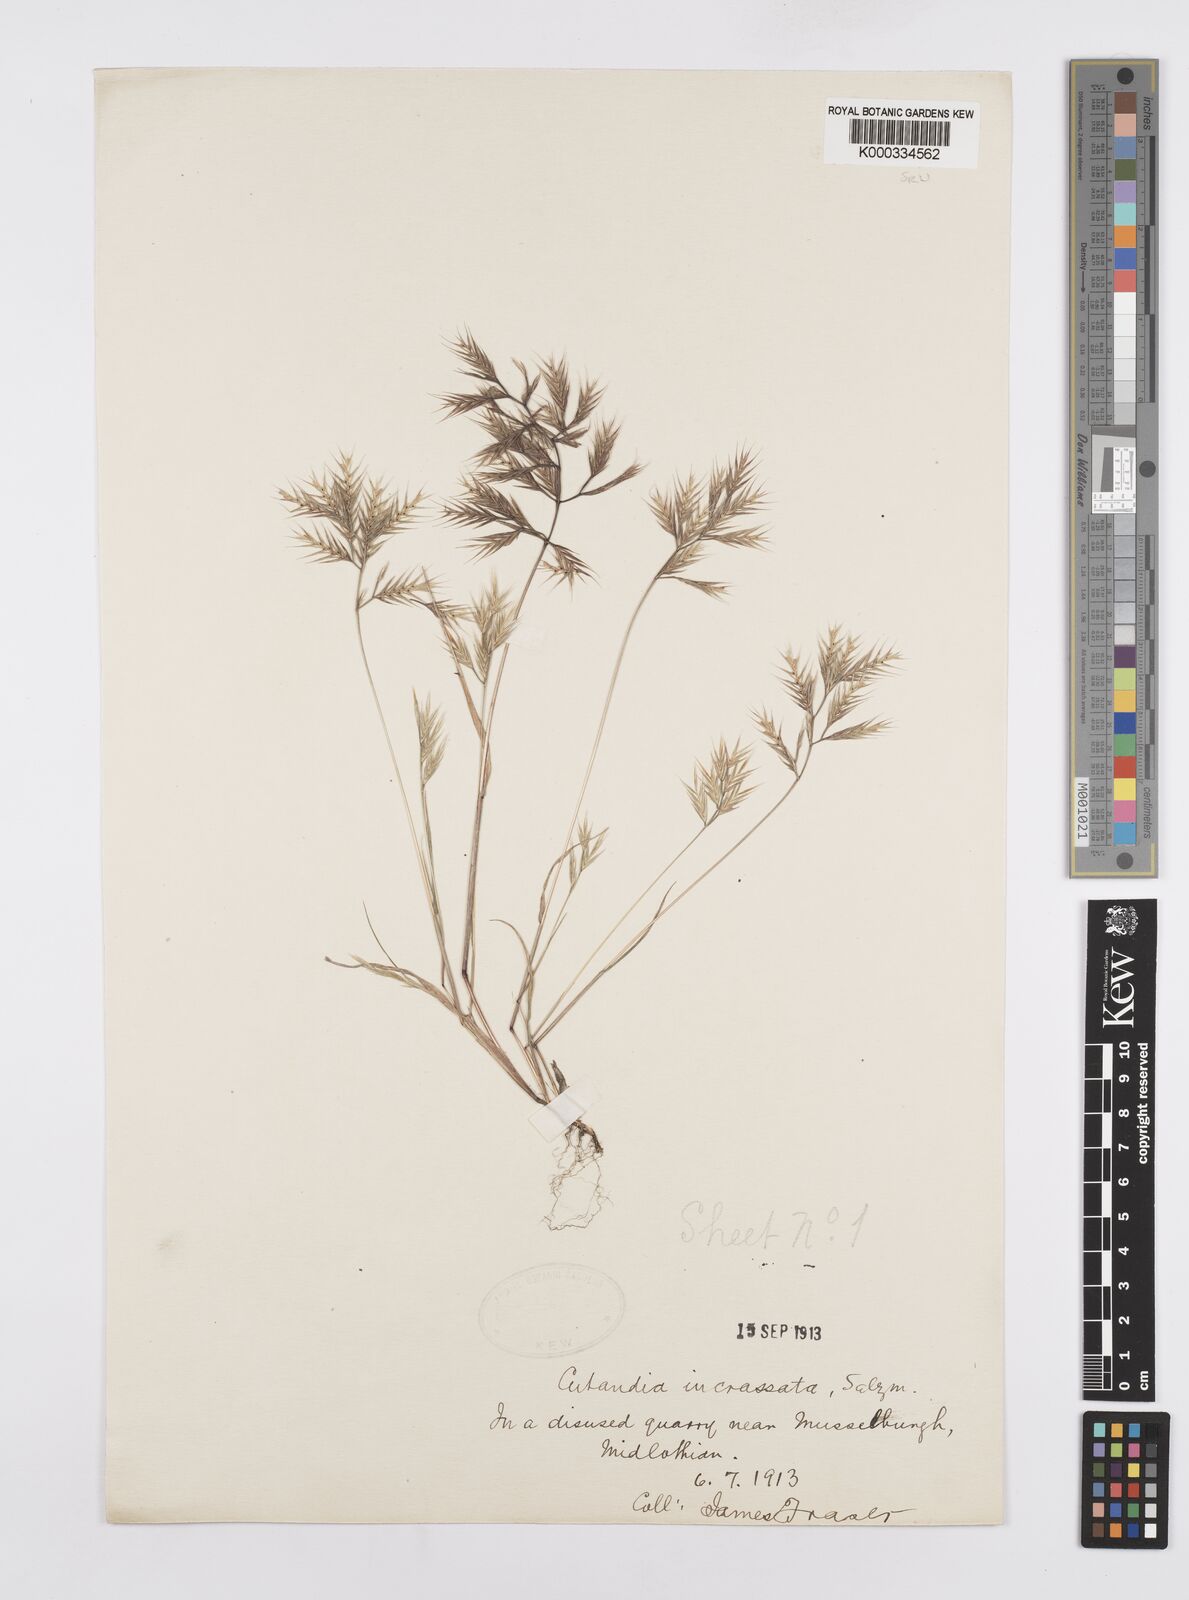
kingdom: Plantae
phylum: Tracheophyta
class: Liliopsida
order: Poales
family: Poaceae
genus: Vulpiella
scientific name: Vulpiella stipoides
